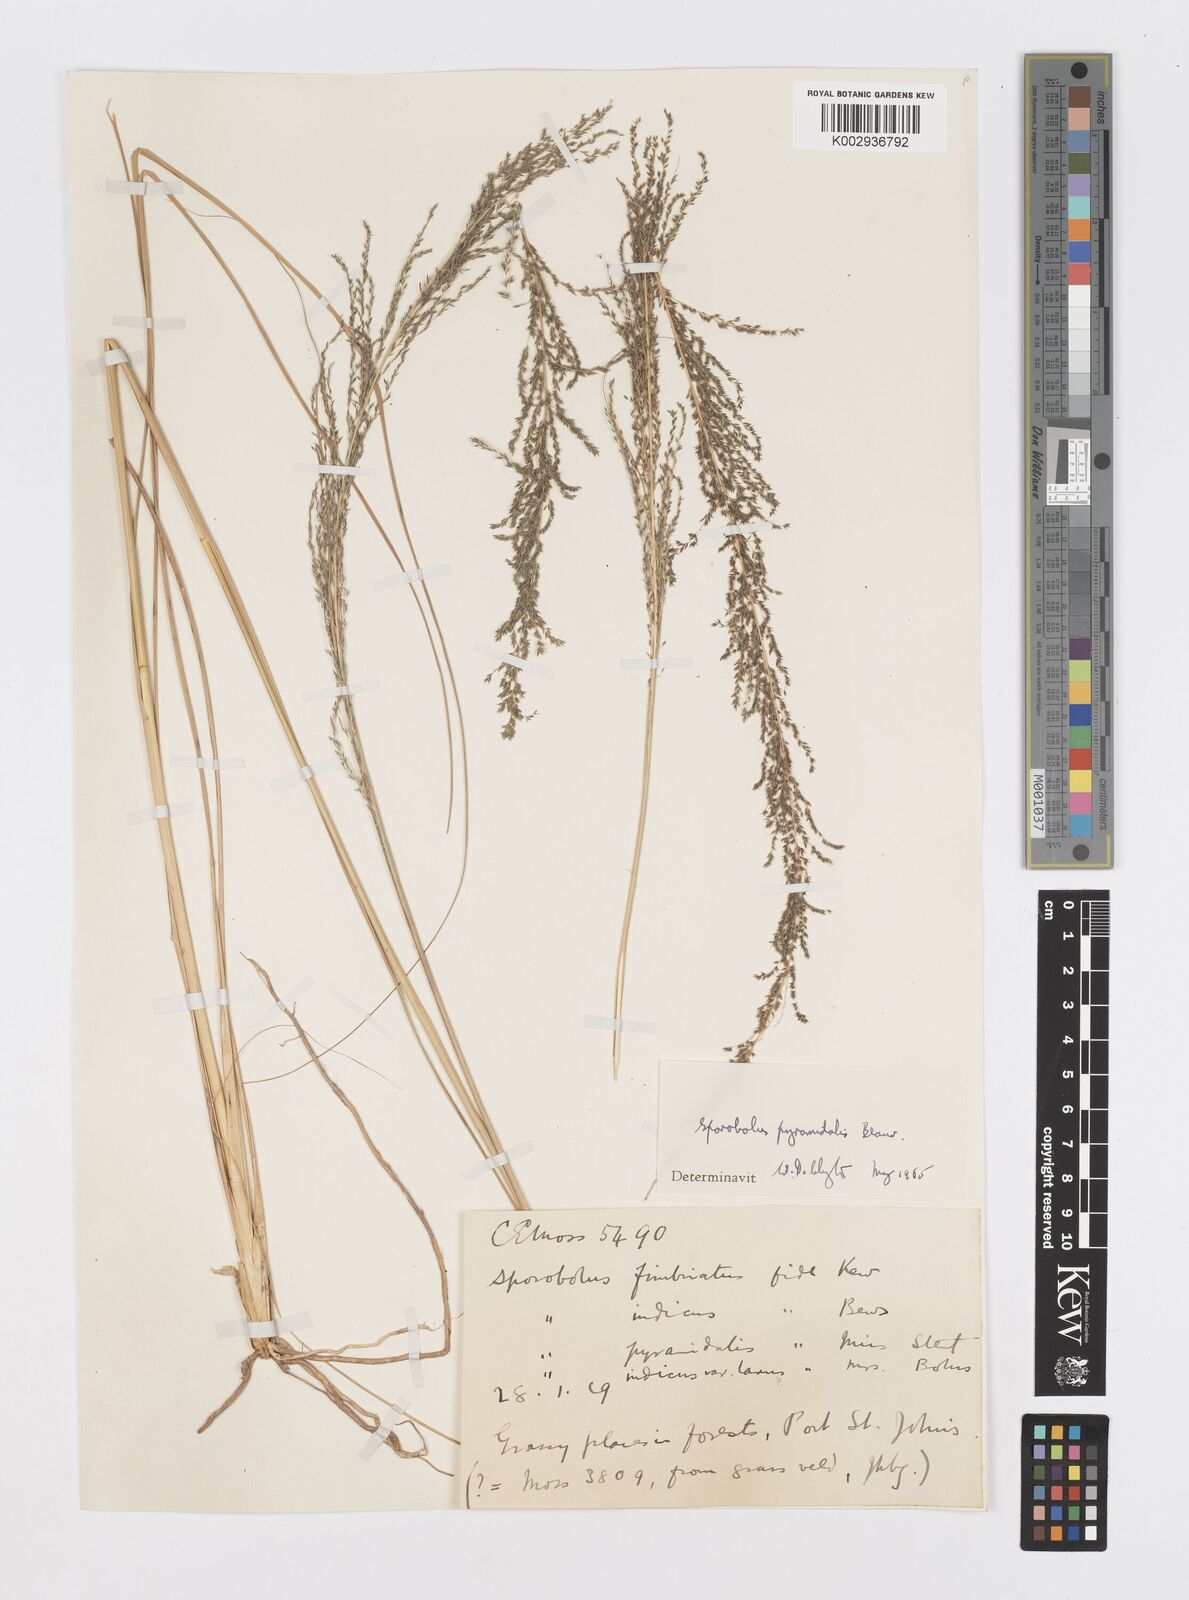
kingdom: Plantae
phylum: Tracheophyta
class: Liliopsida
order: Poales
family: Poaceae
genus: Sporobolus
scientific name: Sporobolus pyramidalis
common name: West indian dropseed
